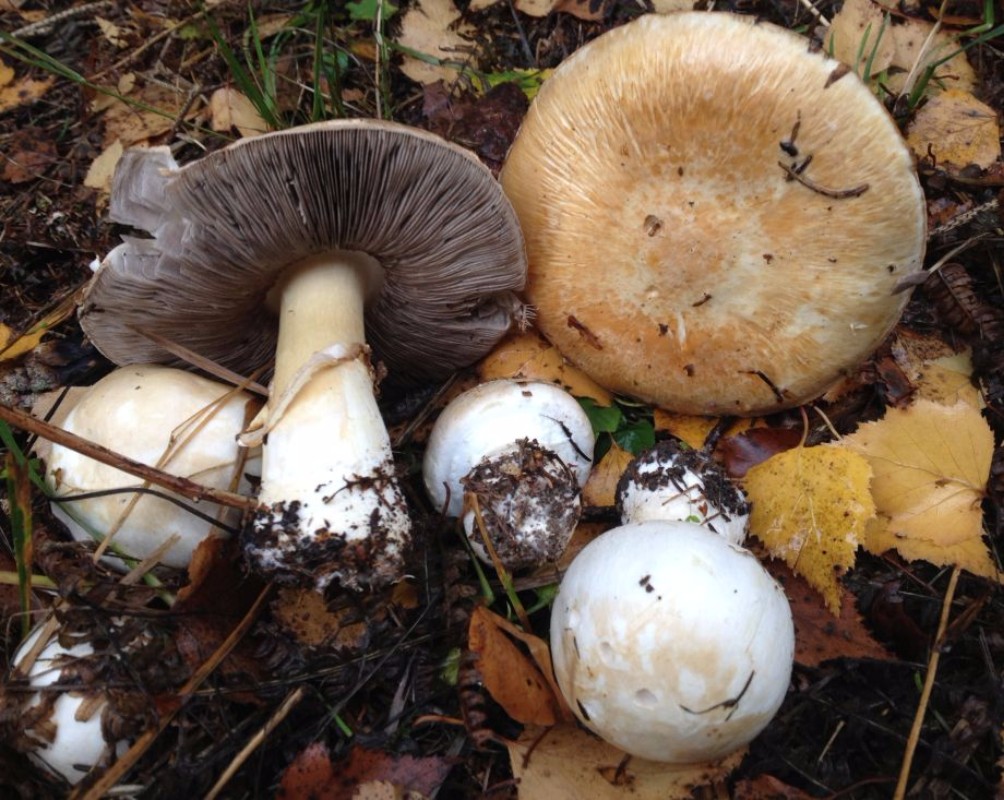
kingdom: Fungi
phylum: Basidiomycota
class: Agaricomycetes
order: Agaricales
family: Agaricaceae
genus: Agaricus
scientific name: Agaricus sylvicola
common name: gulhvid champignon
